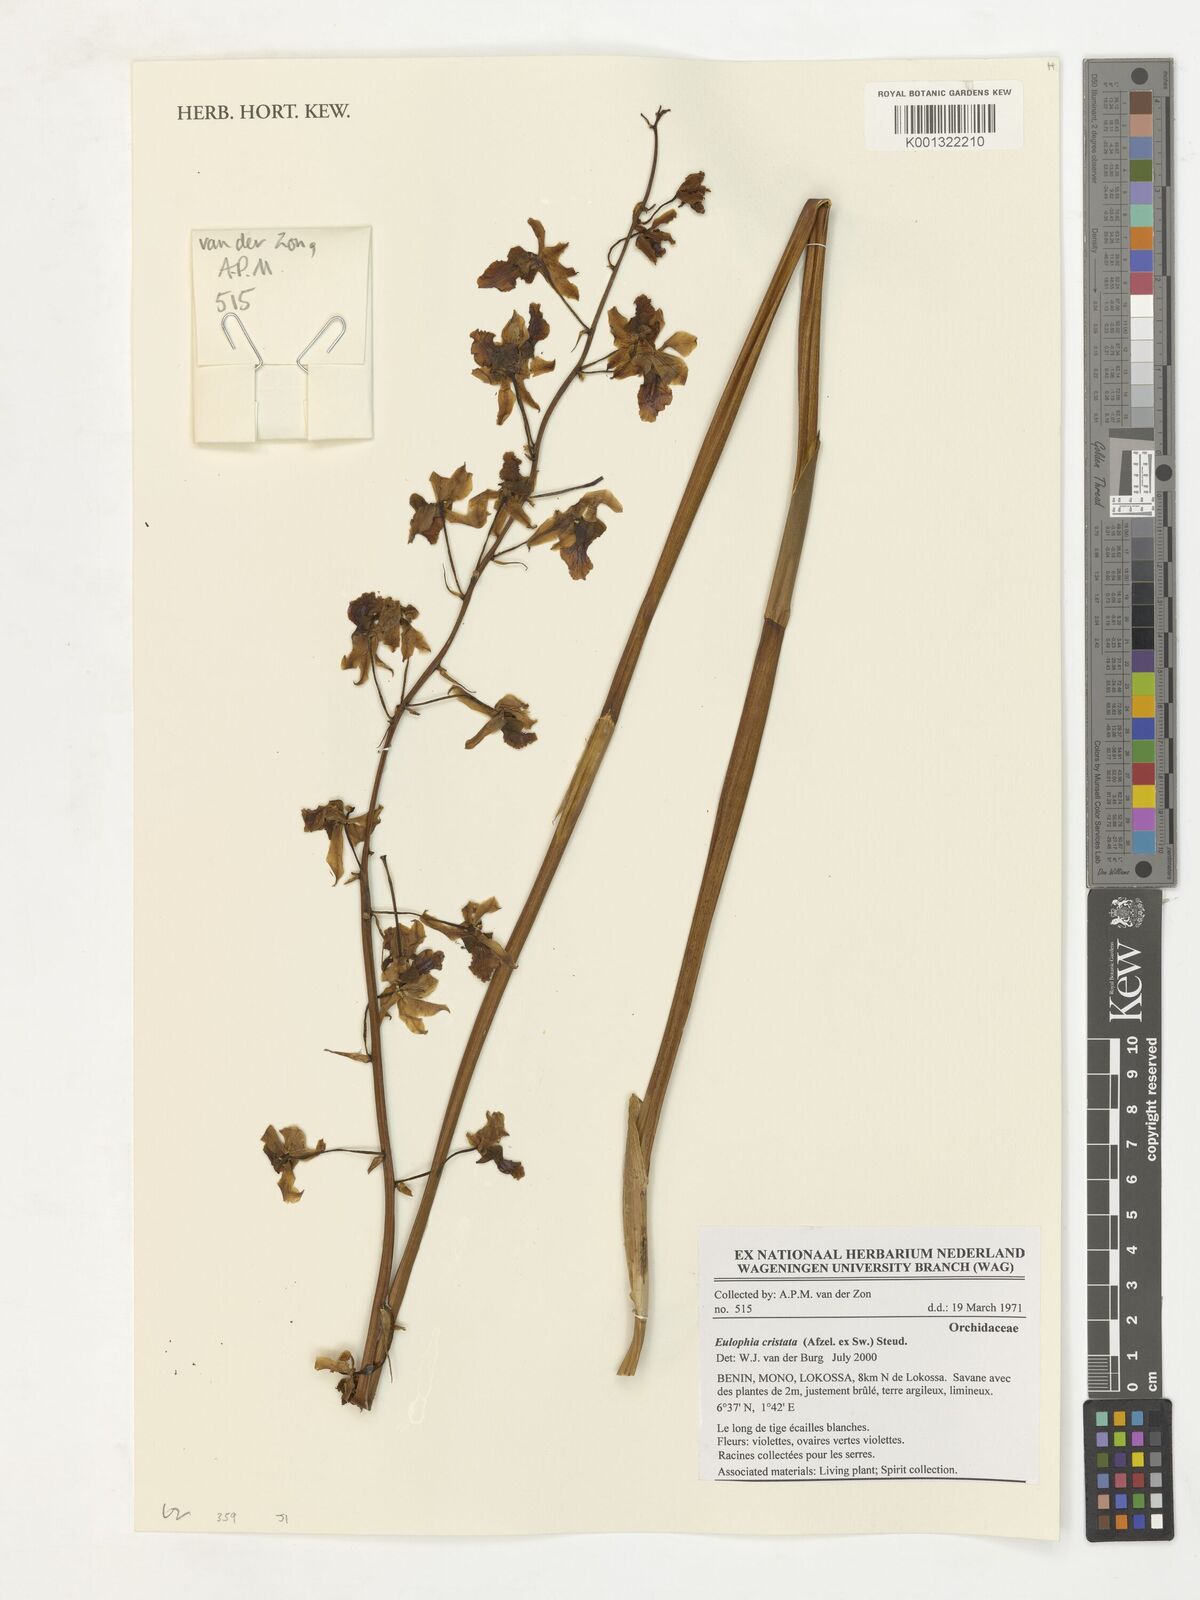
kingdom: Plantae
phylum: Tracheophyta
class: Liliopsida
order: Asparagales
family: Orchidaceae
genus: Eulophia
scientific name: Eulophia cristata
